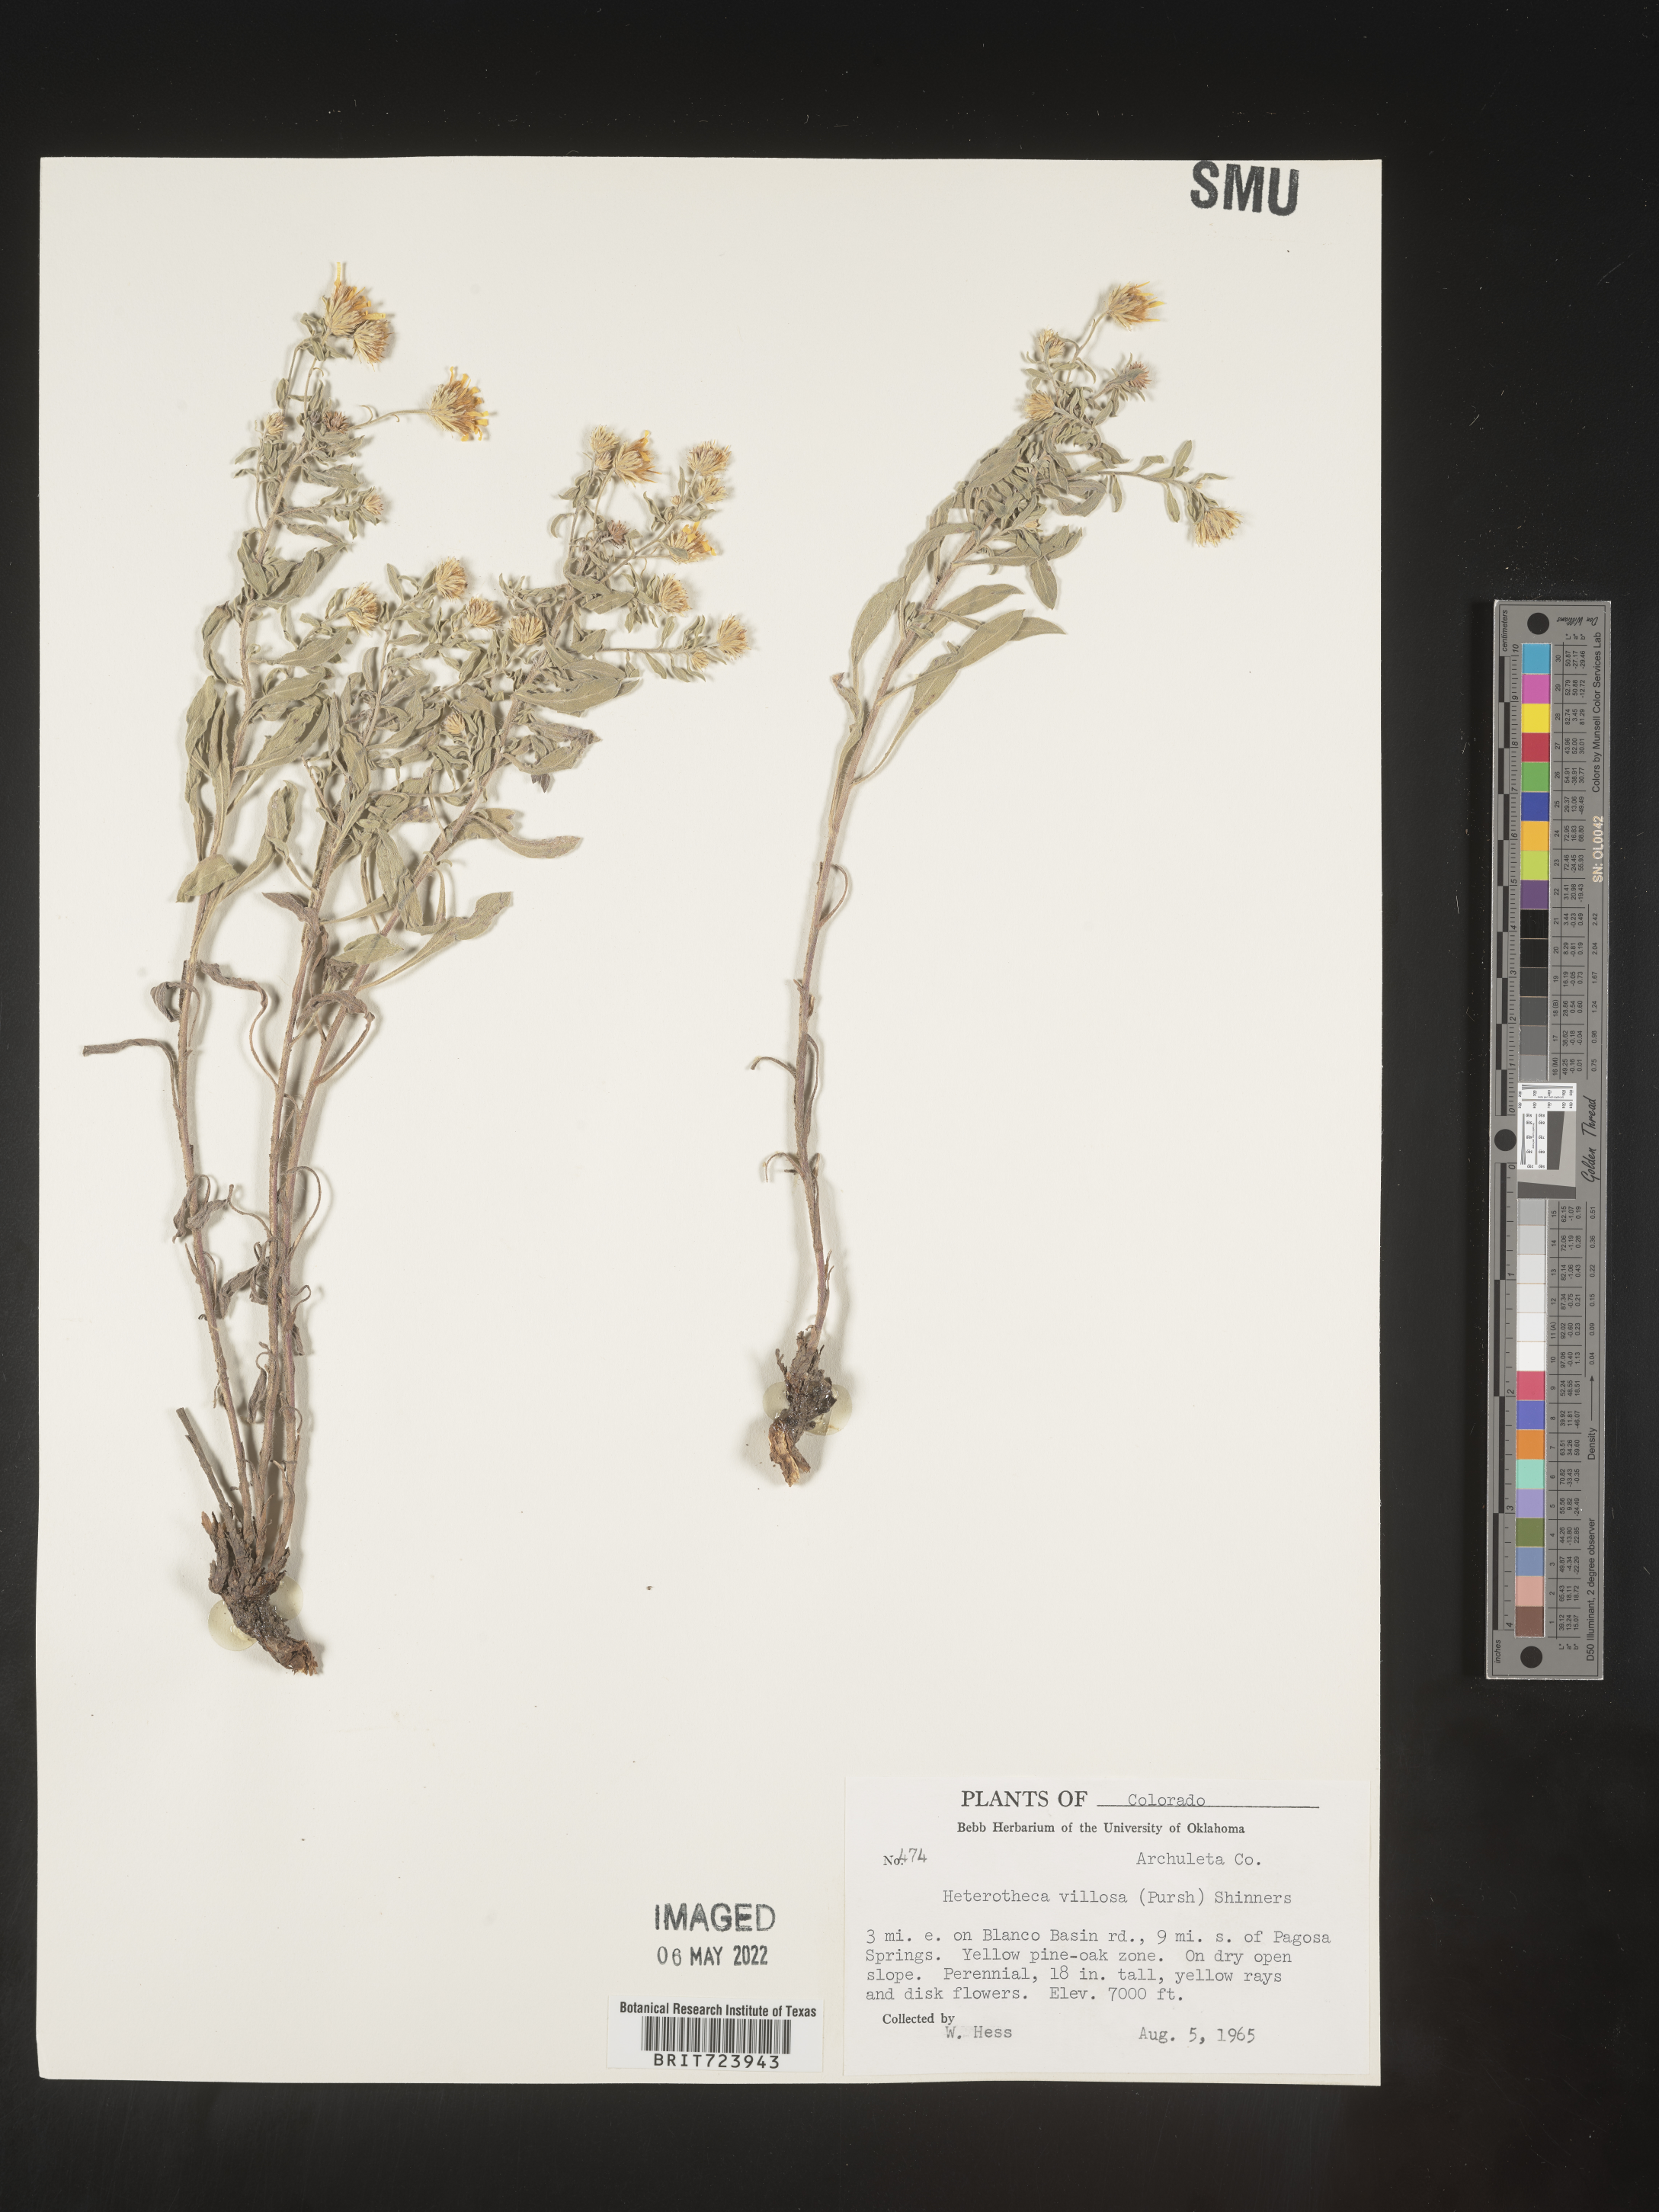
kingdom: Plantae
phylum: Tracheophyta
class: Magnoliopsida
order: Asterales
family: Asteraceae
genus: Heterotheca
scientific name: Heterotheca pedunculata
